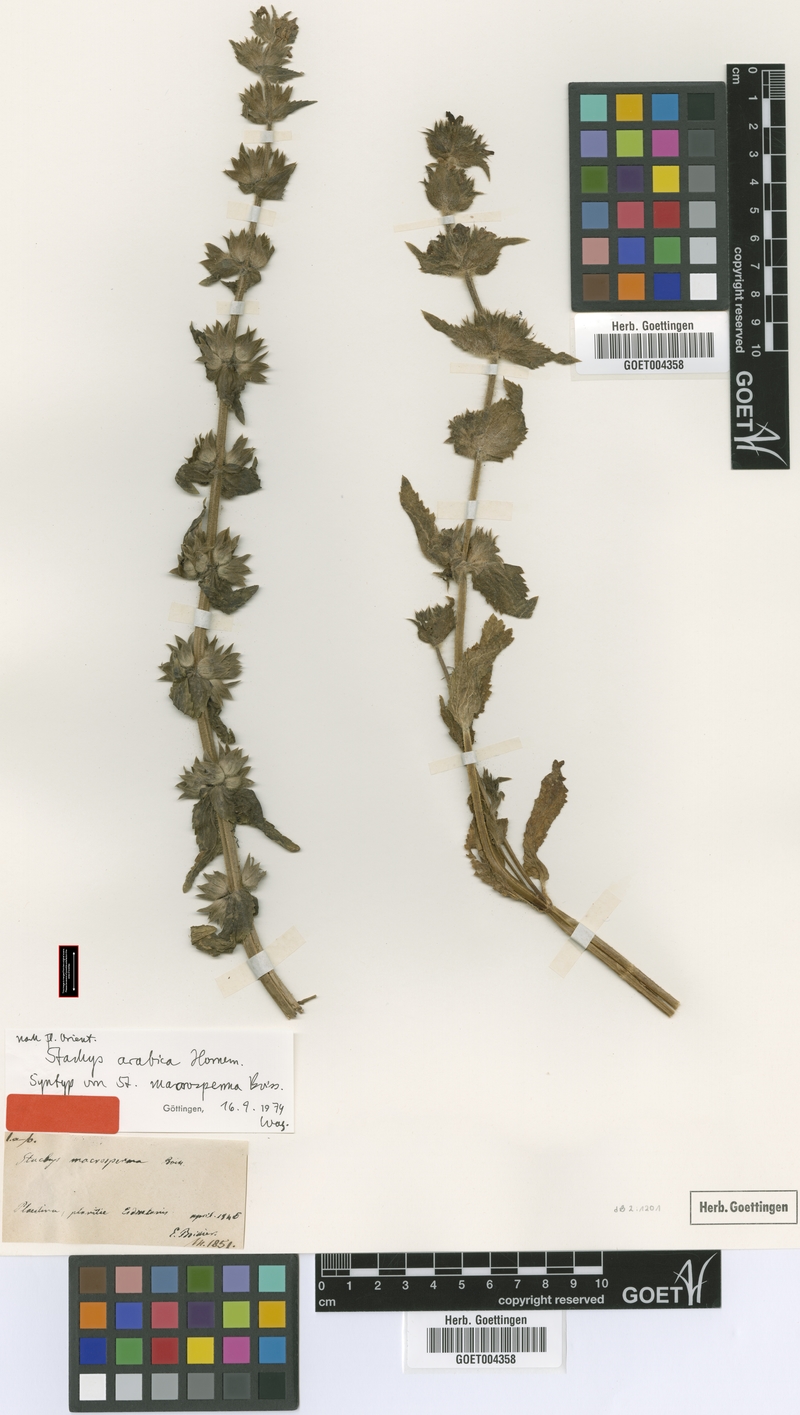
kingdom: Plantae
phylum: Tracheophyta
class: Magnoliopsida
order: Lamiales
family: Lamiaceae
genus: Stachys
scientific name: Stachys arabica
